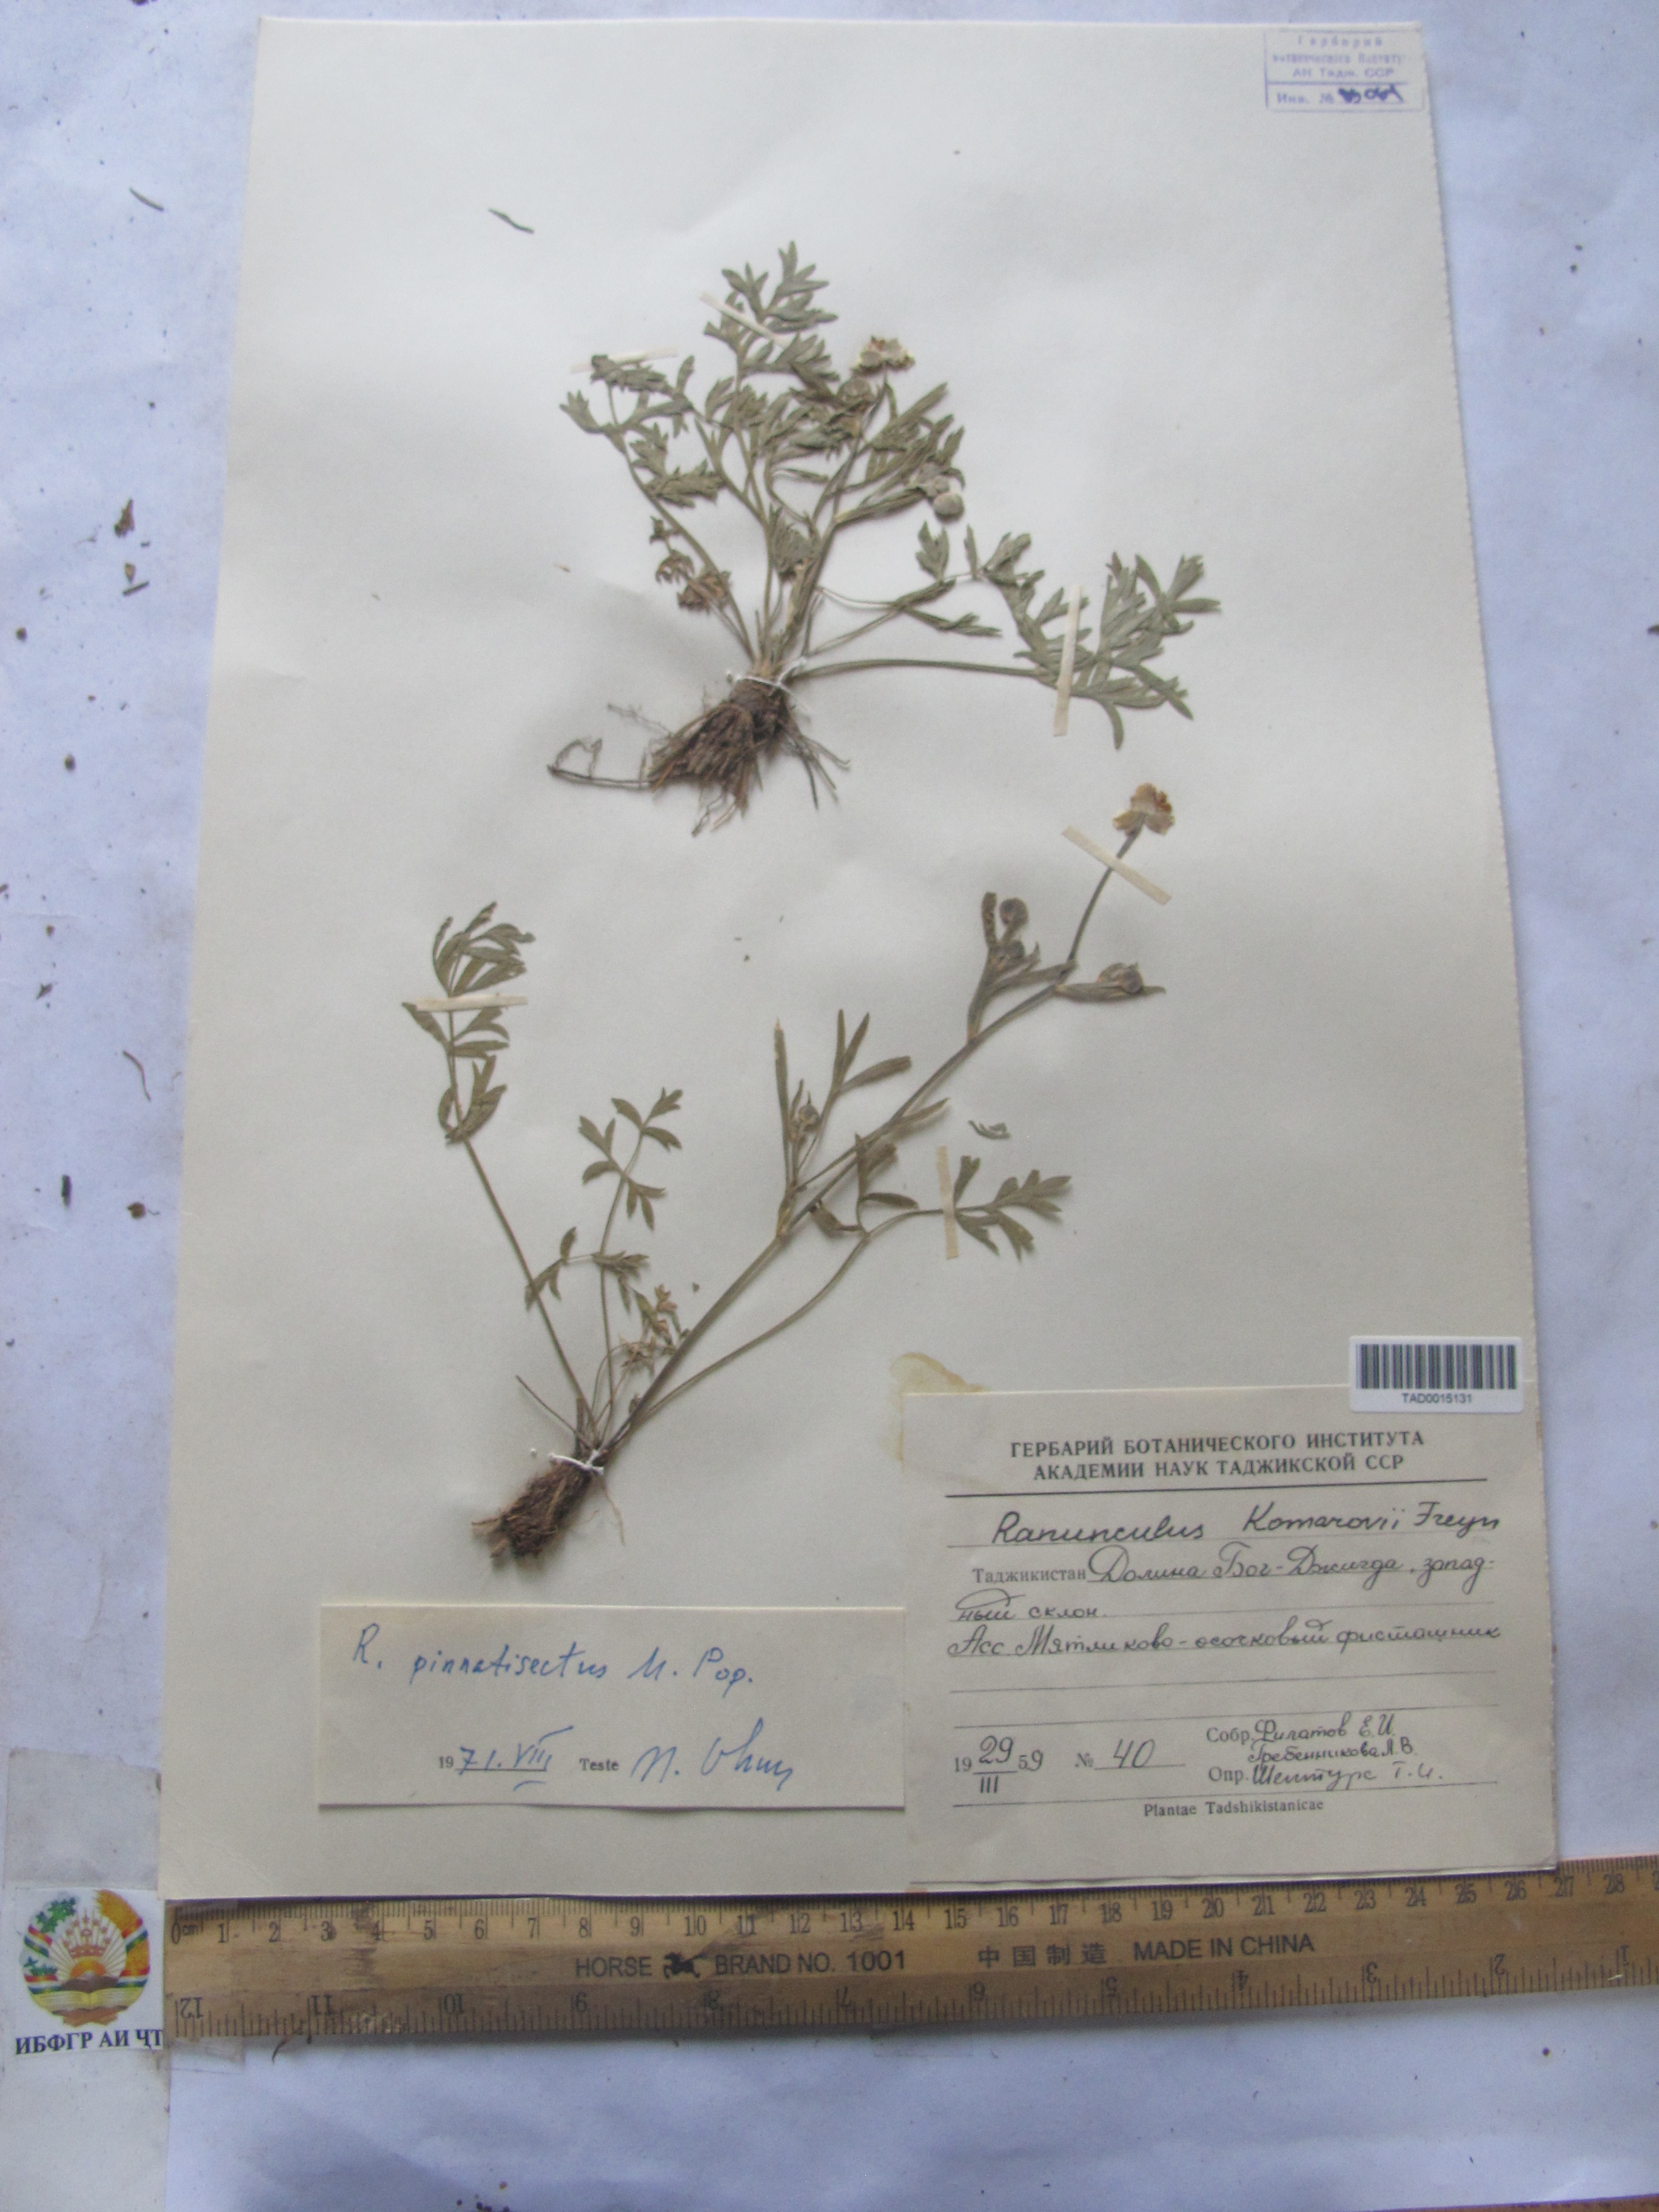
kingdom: Plantae
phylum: Tracheophyta
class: Magnoliopsida
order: Ranunculales
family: Ranunculaceae
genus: Ranunculus
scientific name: Ranunculus pinnatisectus
